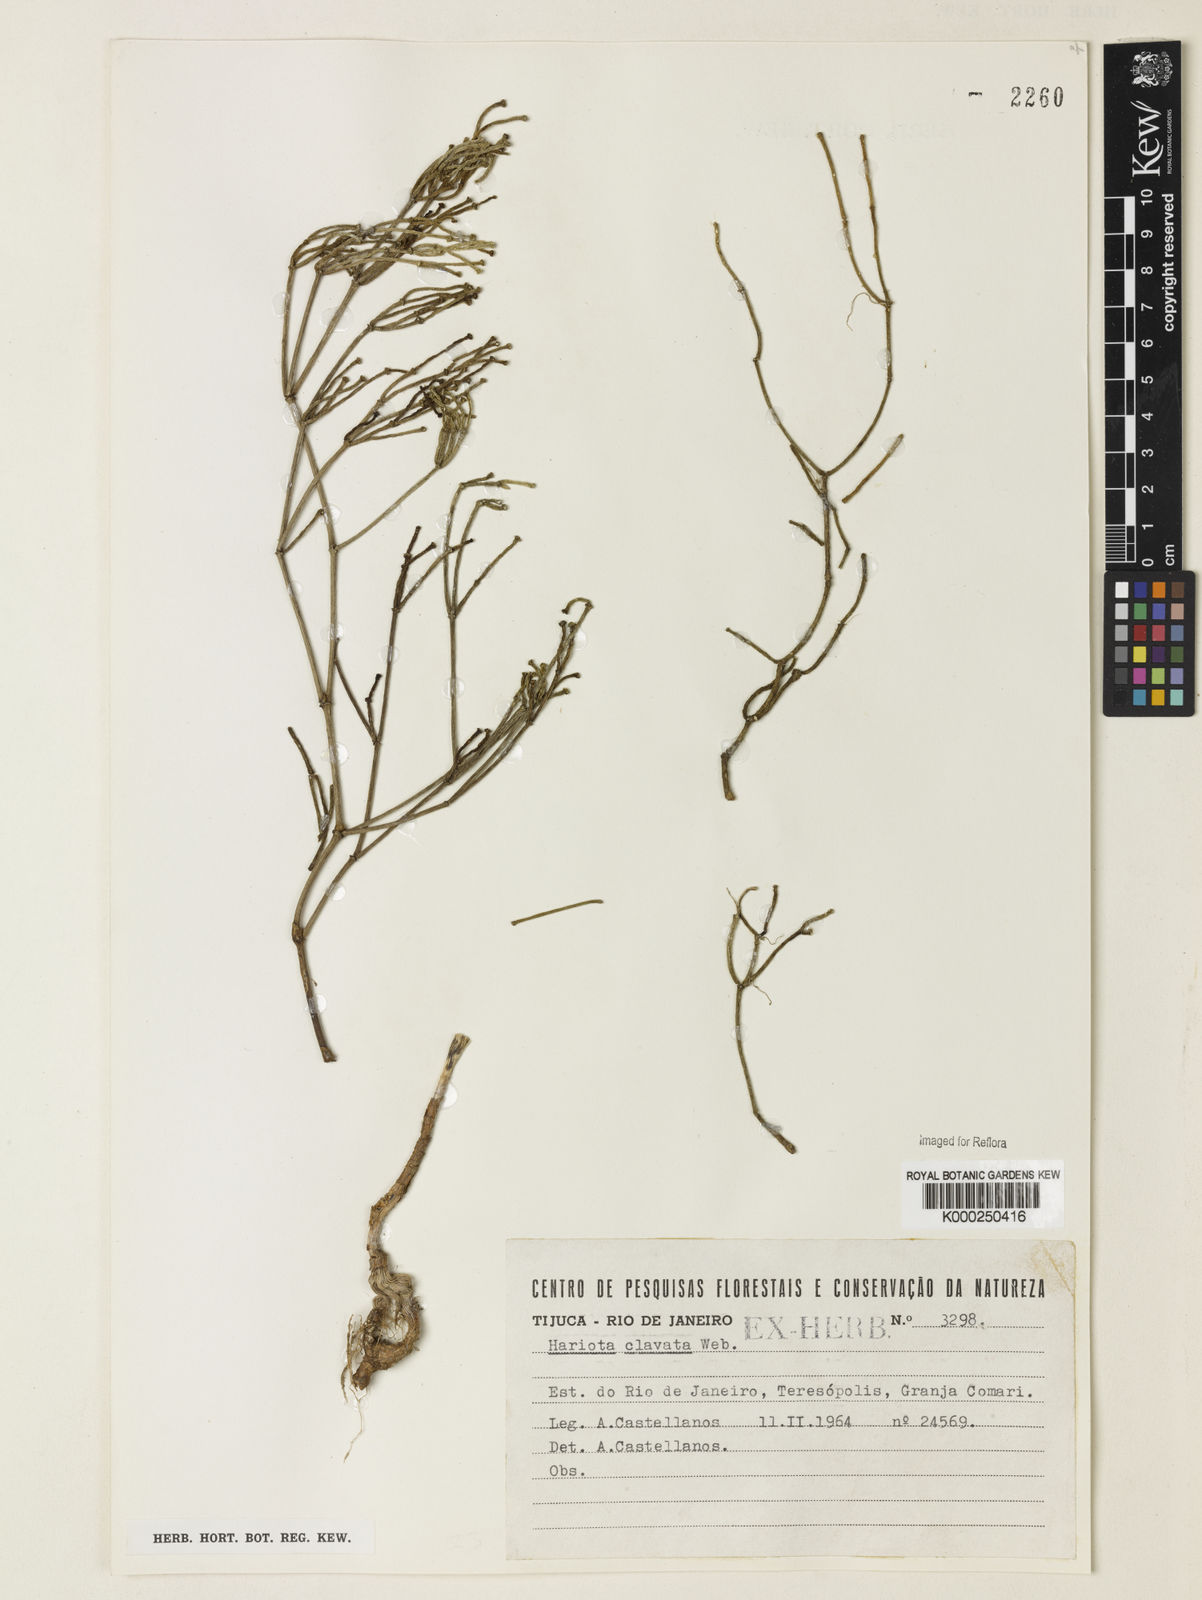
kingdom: Plantae
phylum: Tracheophyta
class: Magnoliopsida
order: Caryophyllales
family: Cactaceae
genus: Rhipsalis
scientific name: Rhipsalis clavata
